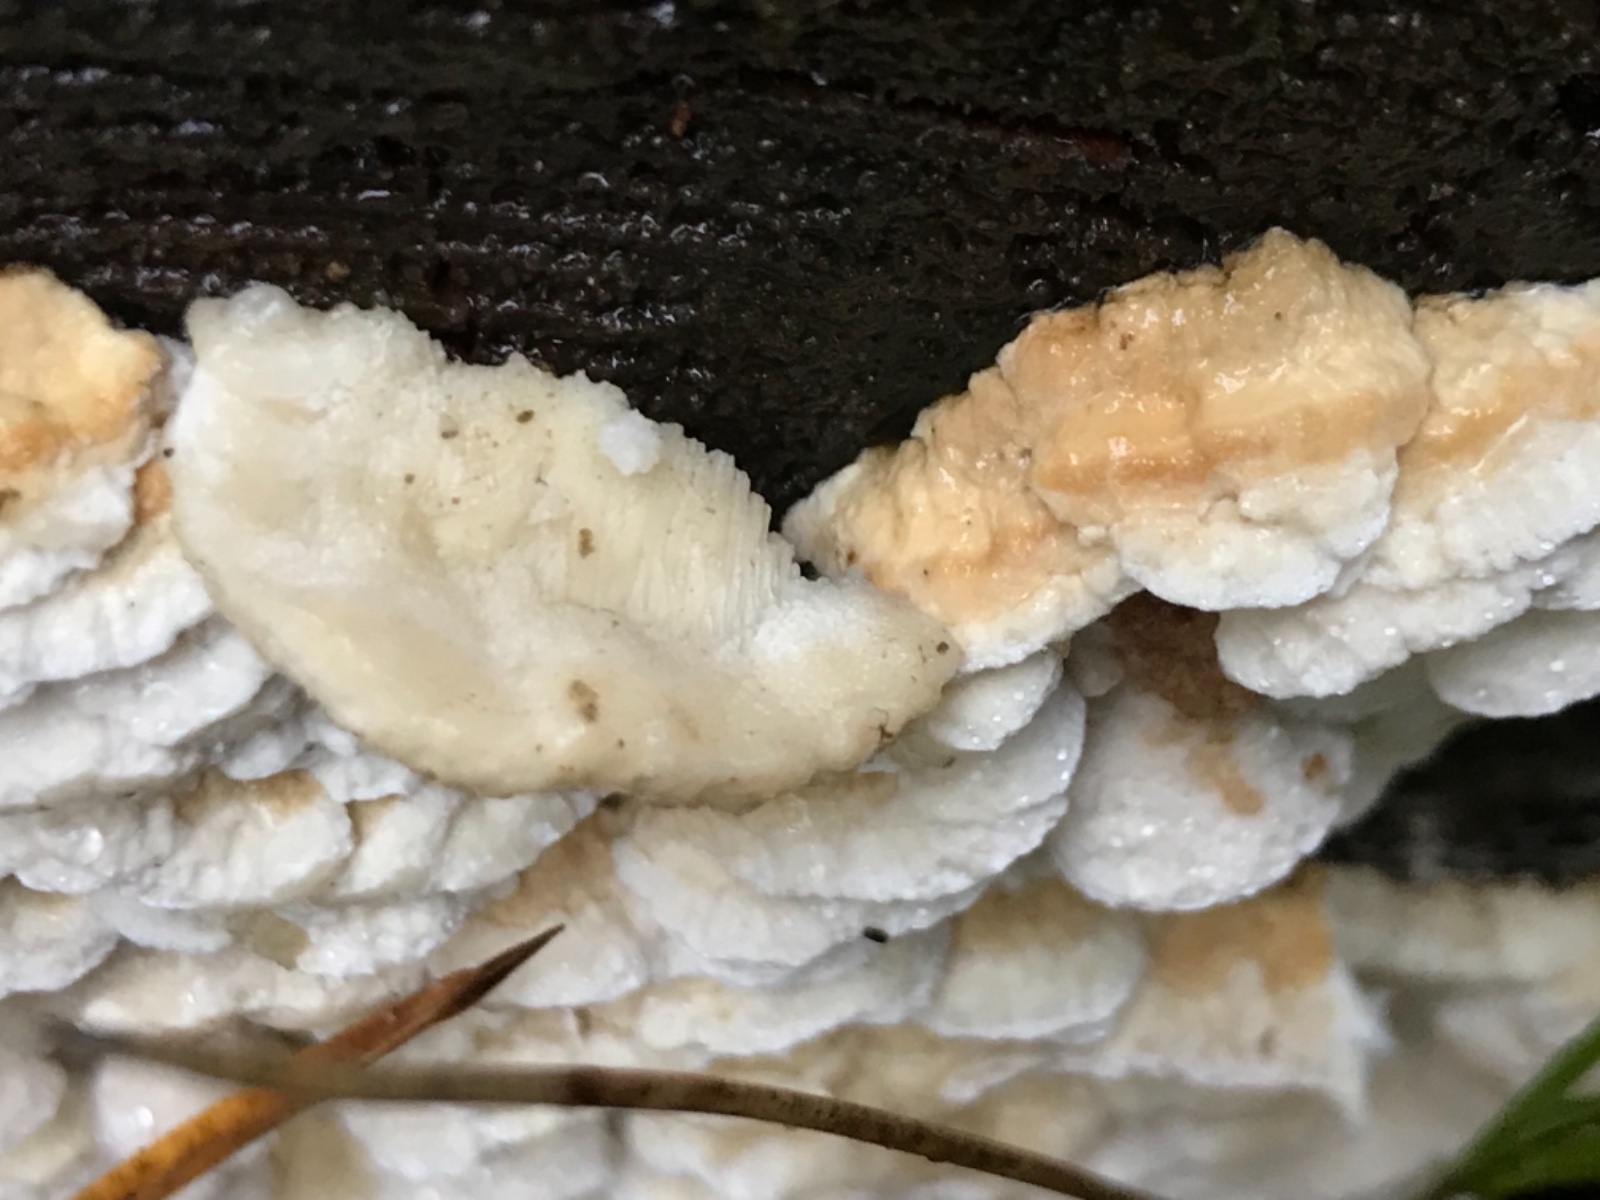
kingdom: Fungi
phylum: Basidiomycota
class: Agaricomycetes
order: Polyporales
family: Fomitopsidaceae
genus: Neoantrodia
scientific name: Neoantrodia serialis
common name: række-sejporesvamp
